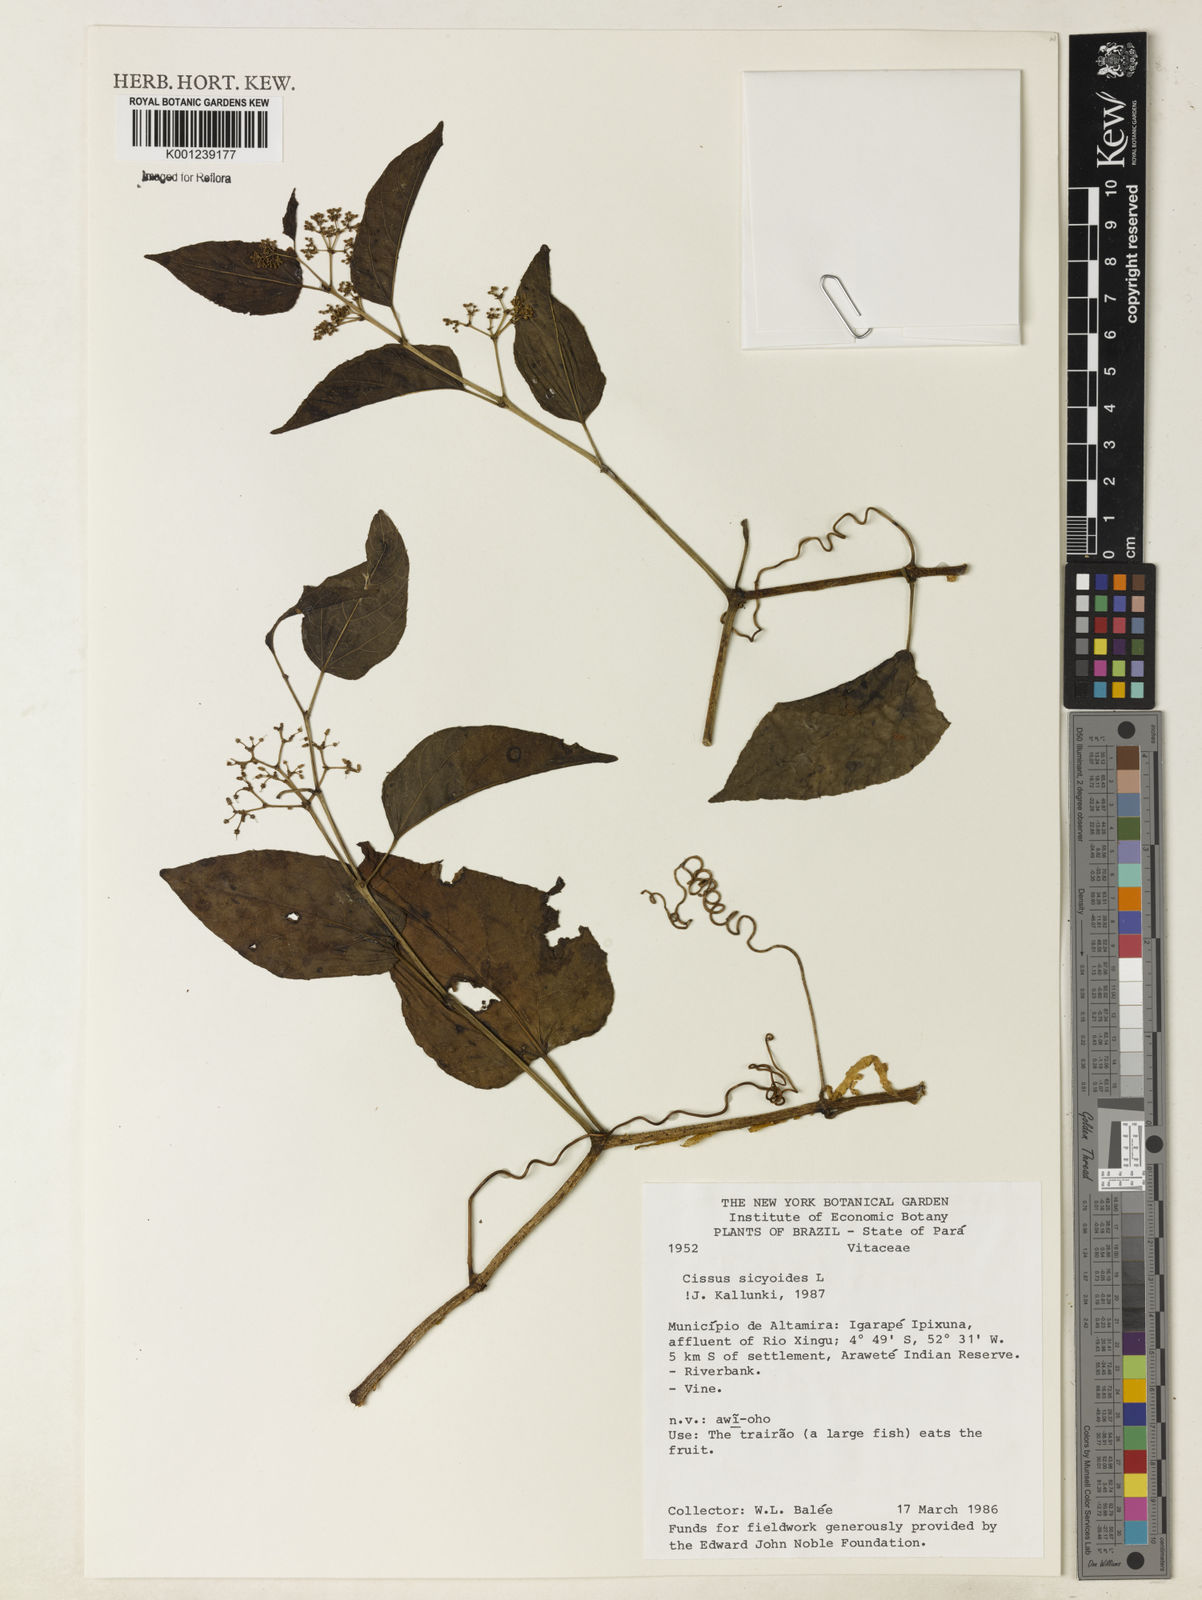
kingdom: Plantae
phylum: Tracheophyta
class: Magnoliopsida
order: Vitales
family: Vitaceae
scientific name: Vitaceae
